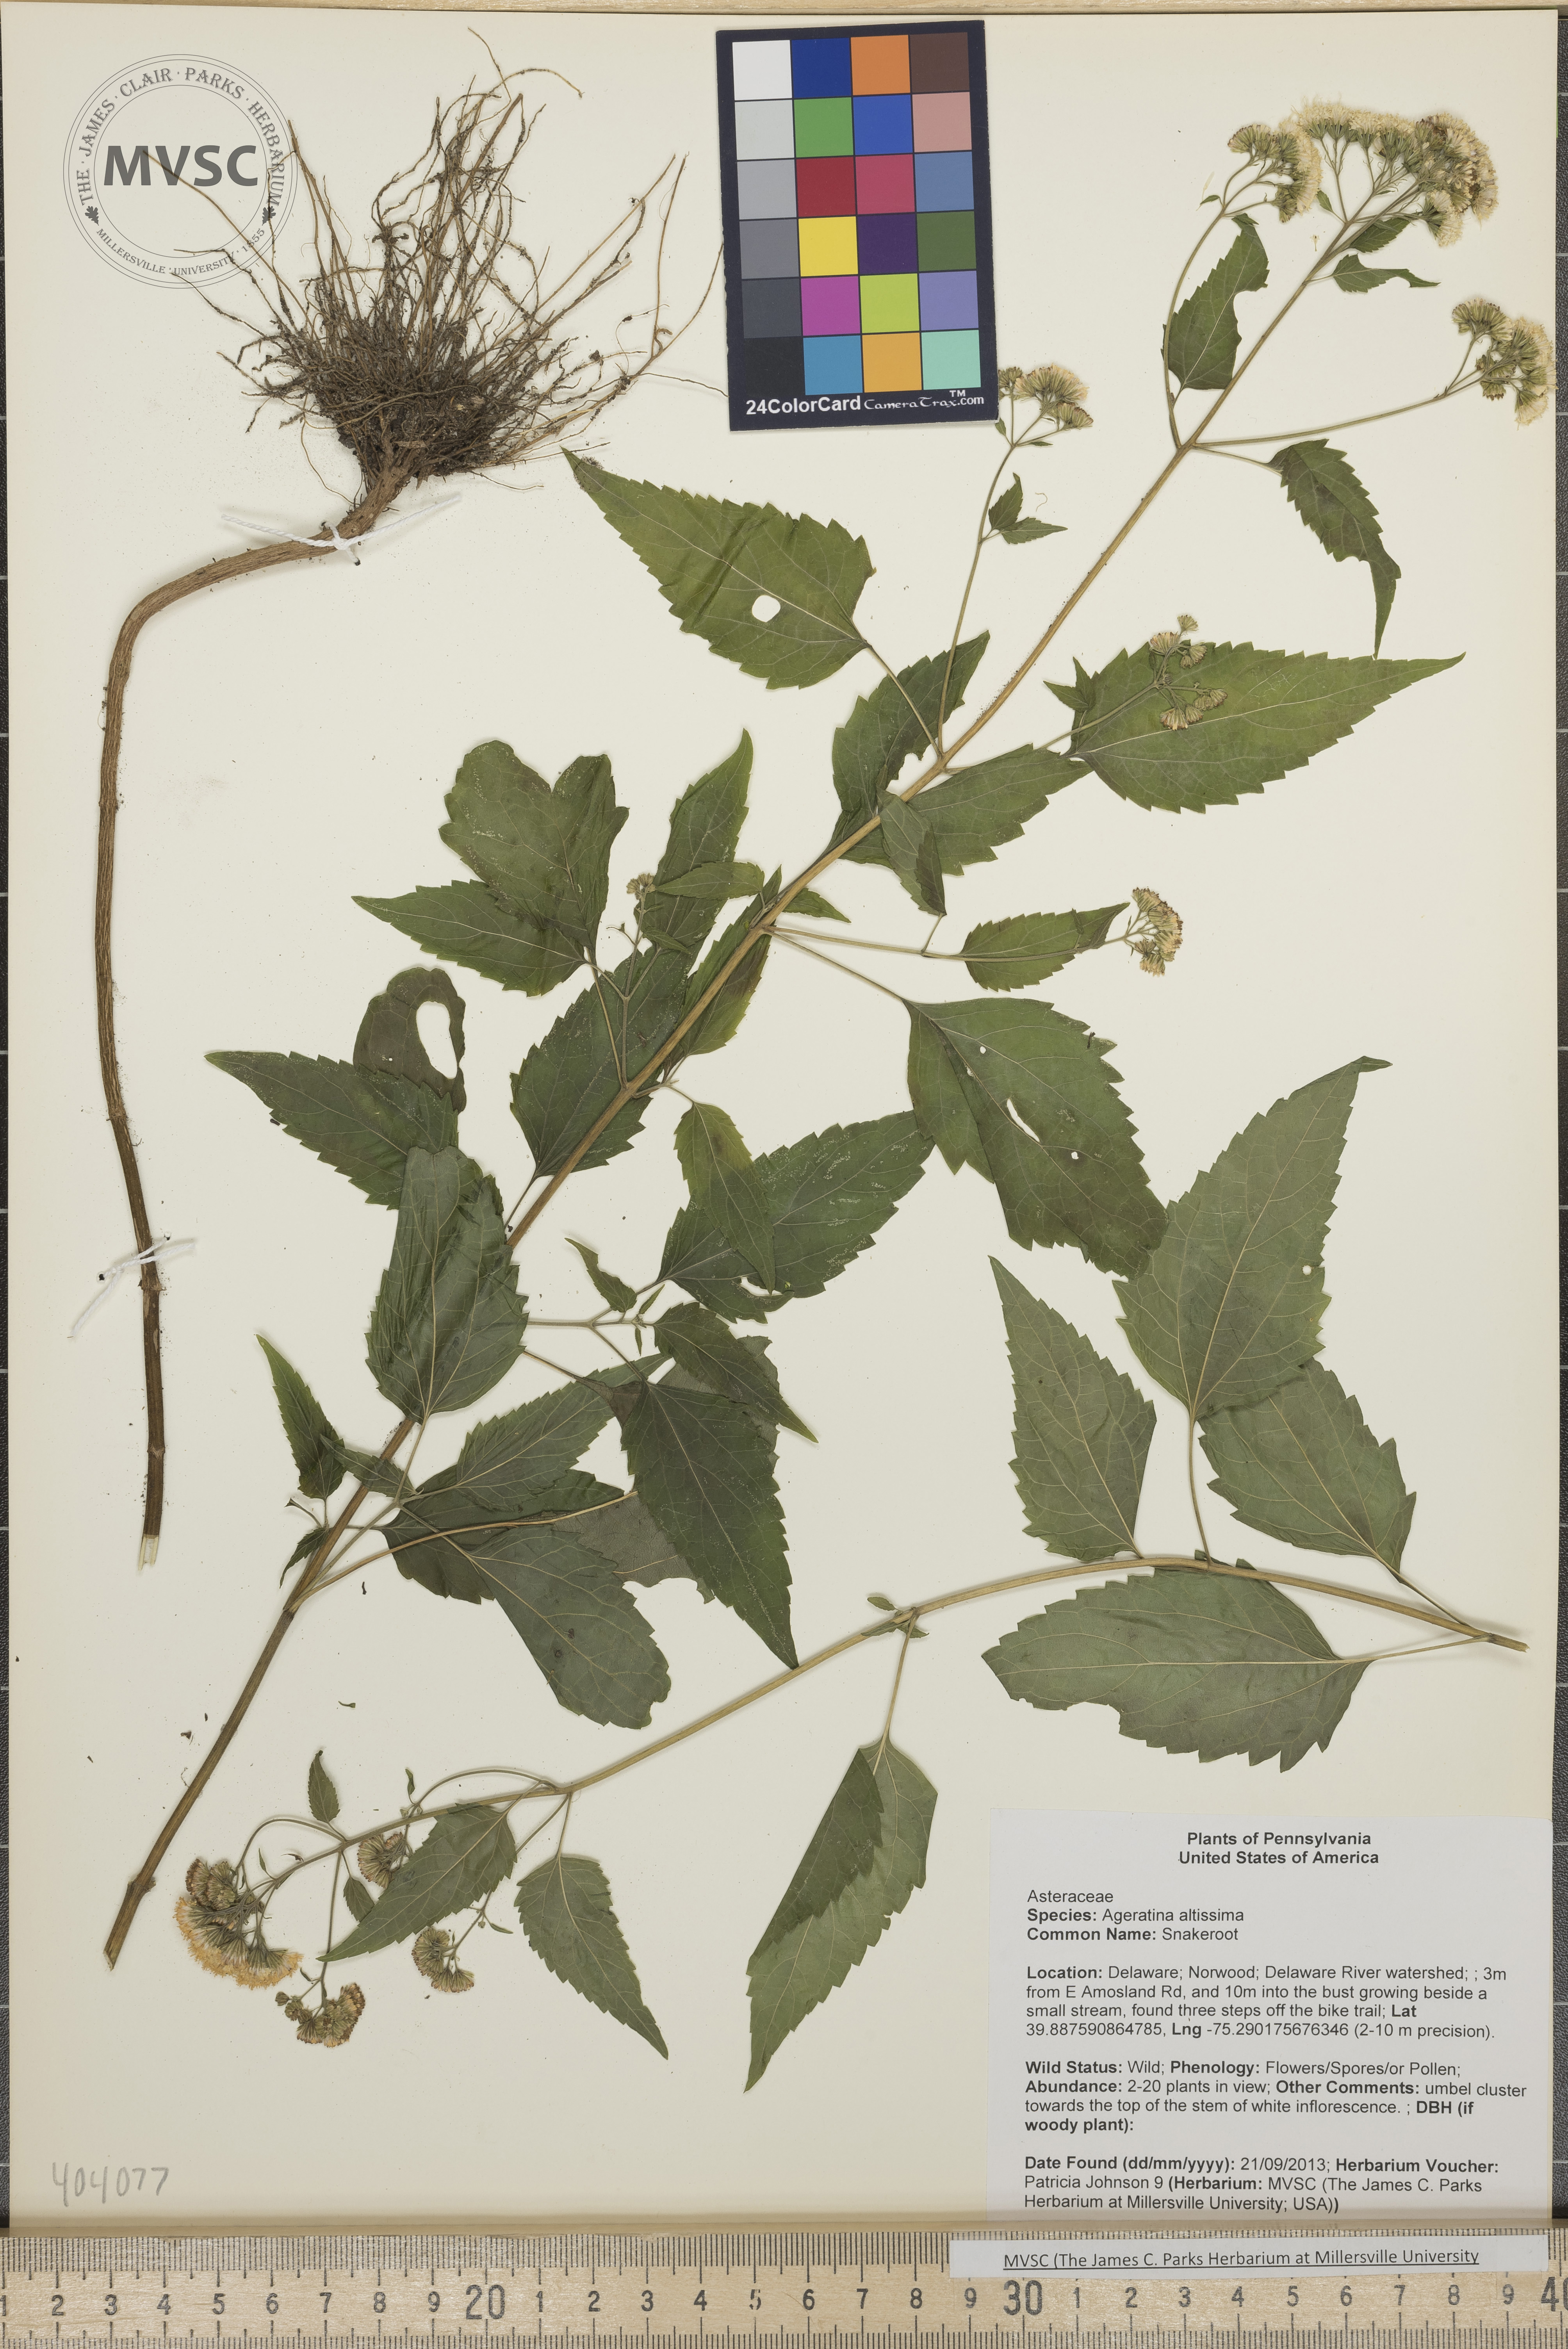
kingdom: Plantae
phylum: Tracheophyta
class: Magnoliopsida
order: Asterales
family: Asteraceae
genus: Ageratina
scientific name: Ageratina altissima
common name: Snakeroot
